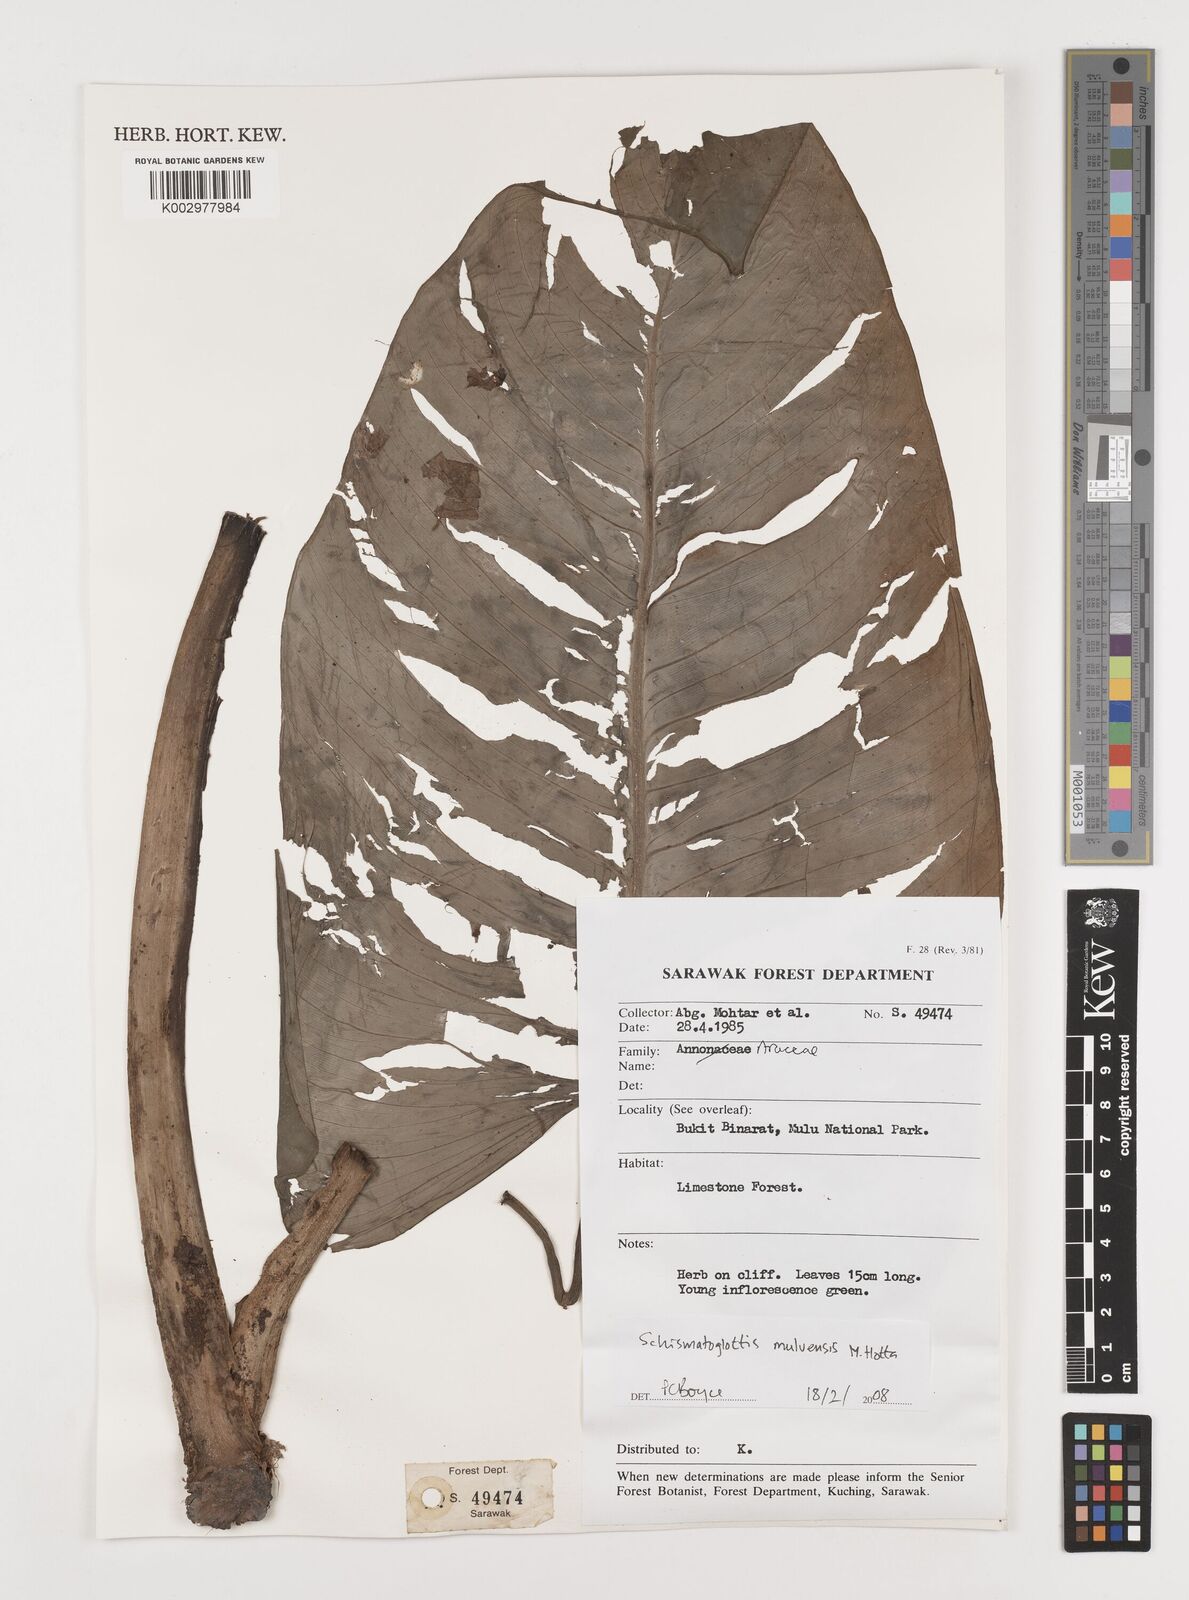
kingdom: Plantae
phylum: Tracheophyta
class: Liliopsida
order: Alismatales
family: Araceae
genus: Schismatoglottis
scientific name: Schismatoglottis calyptrata
